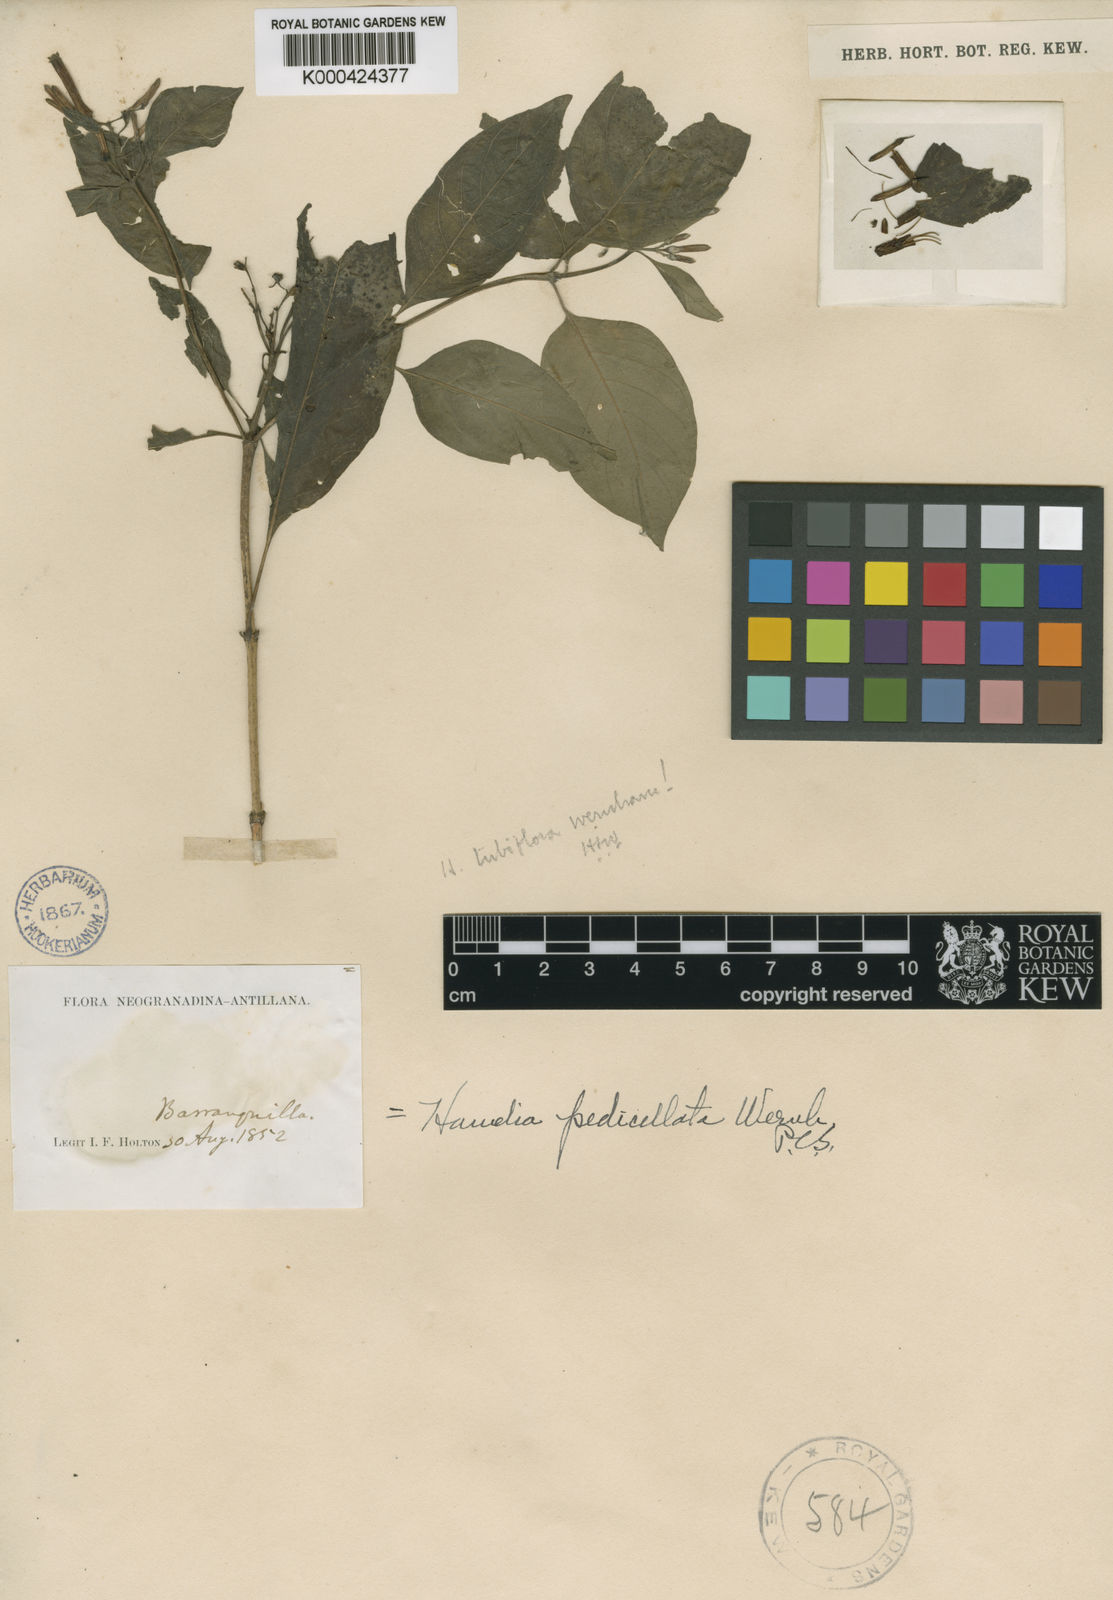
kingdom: Plantae
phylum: Tracheophyta
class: Magnoliopsida
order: Gentianales
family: Rubiaceae
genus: Hamelia
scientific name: Hamelia patens
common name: Redhead
